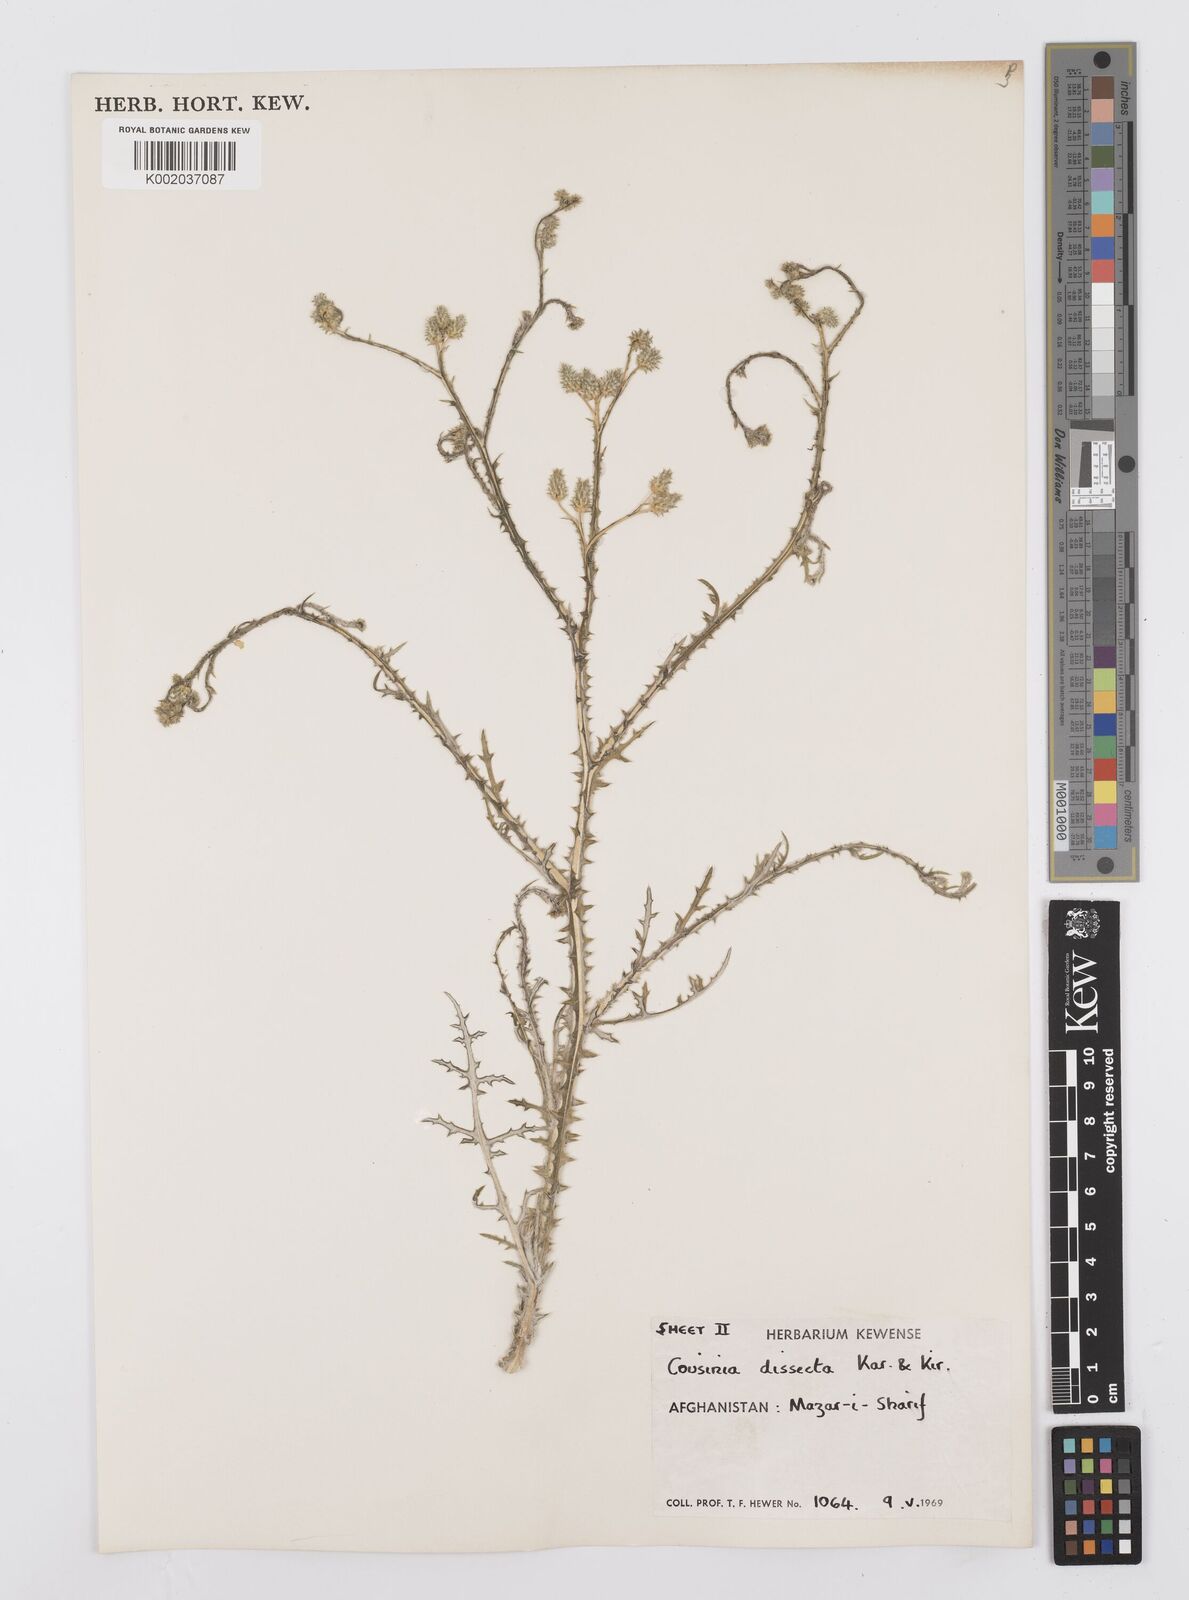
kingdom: Plantae
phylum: Tracheophyta
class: Magnoliopsida
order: Asterales
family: Asteraceae
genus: Cousinia
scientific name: Cousinia turkmenorum
